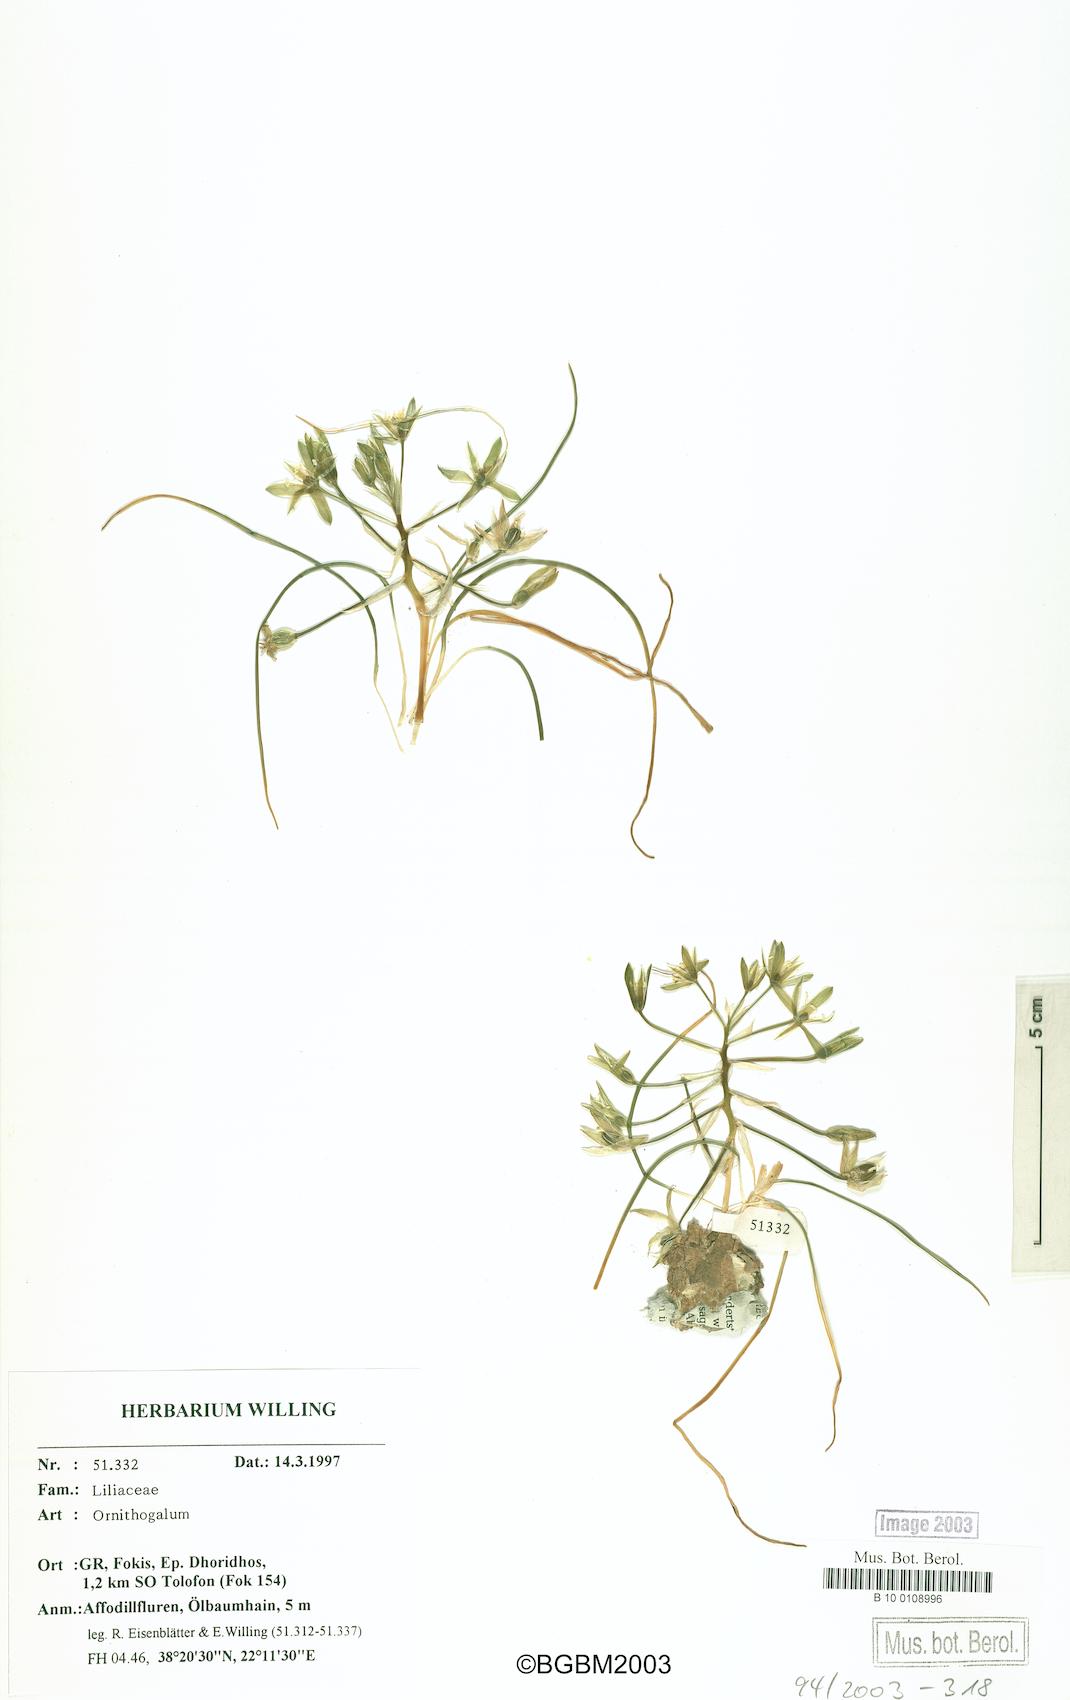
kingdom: Plantae
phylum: Tracheophyta
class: Liliopsida
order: Asparagales
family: Asparagaceae
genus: Ornithogalum
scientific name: Ornithogalum
